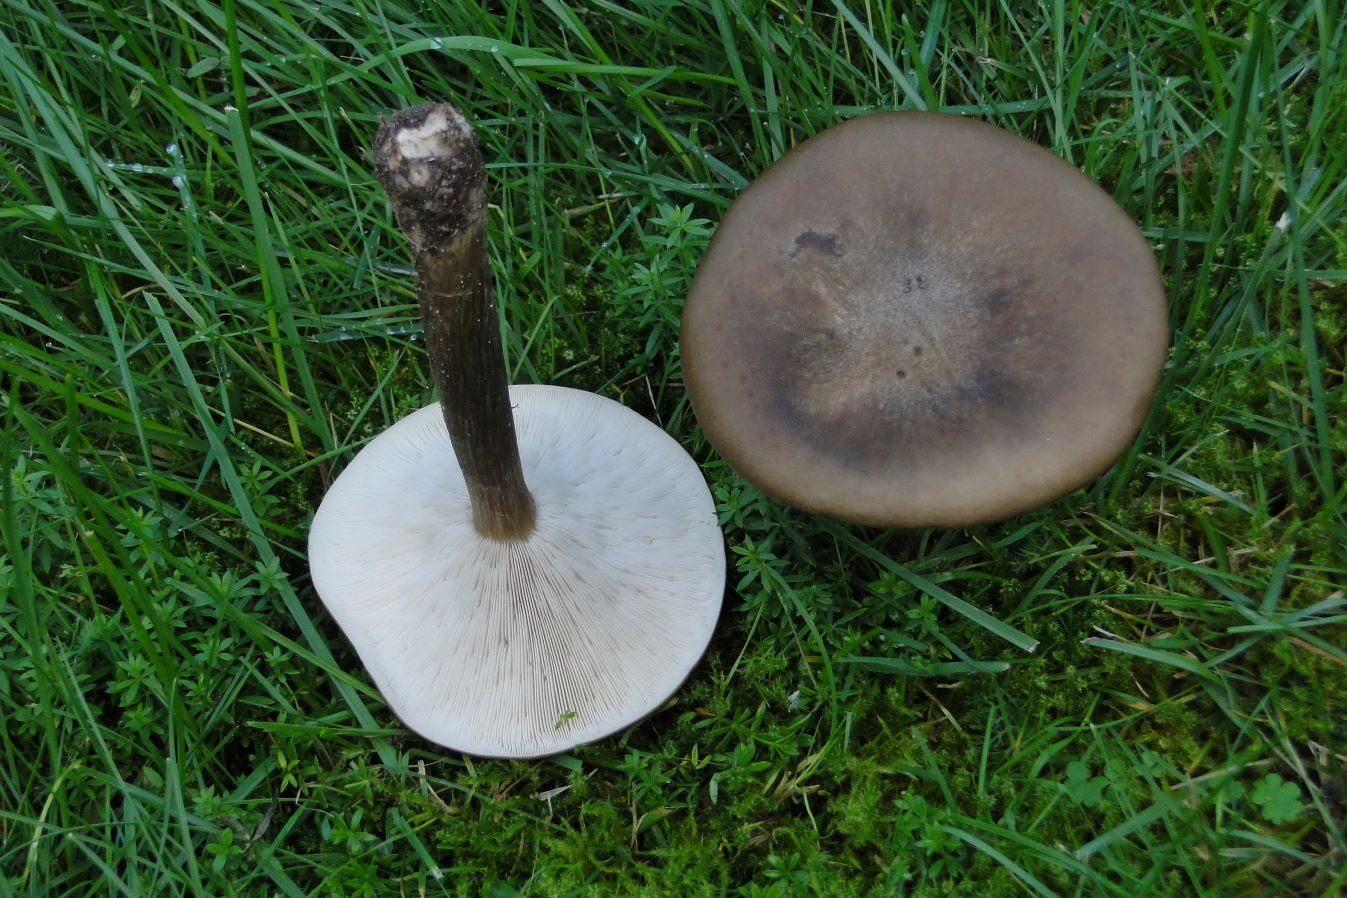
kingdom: Fungi
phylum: Basidiomycota
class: Agaricomycetes
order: Agaricales
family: Tricholomataceae
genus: Melanoleuca
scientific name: Melanoleuca grammopodia
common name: stribestokket munkehat
